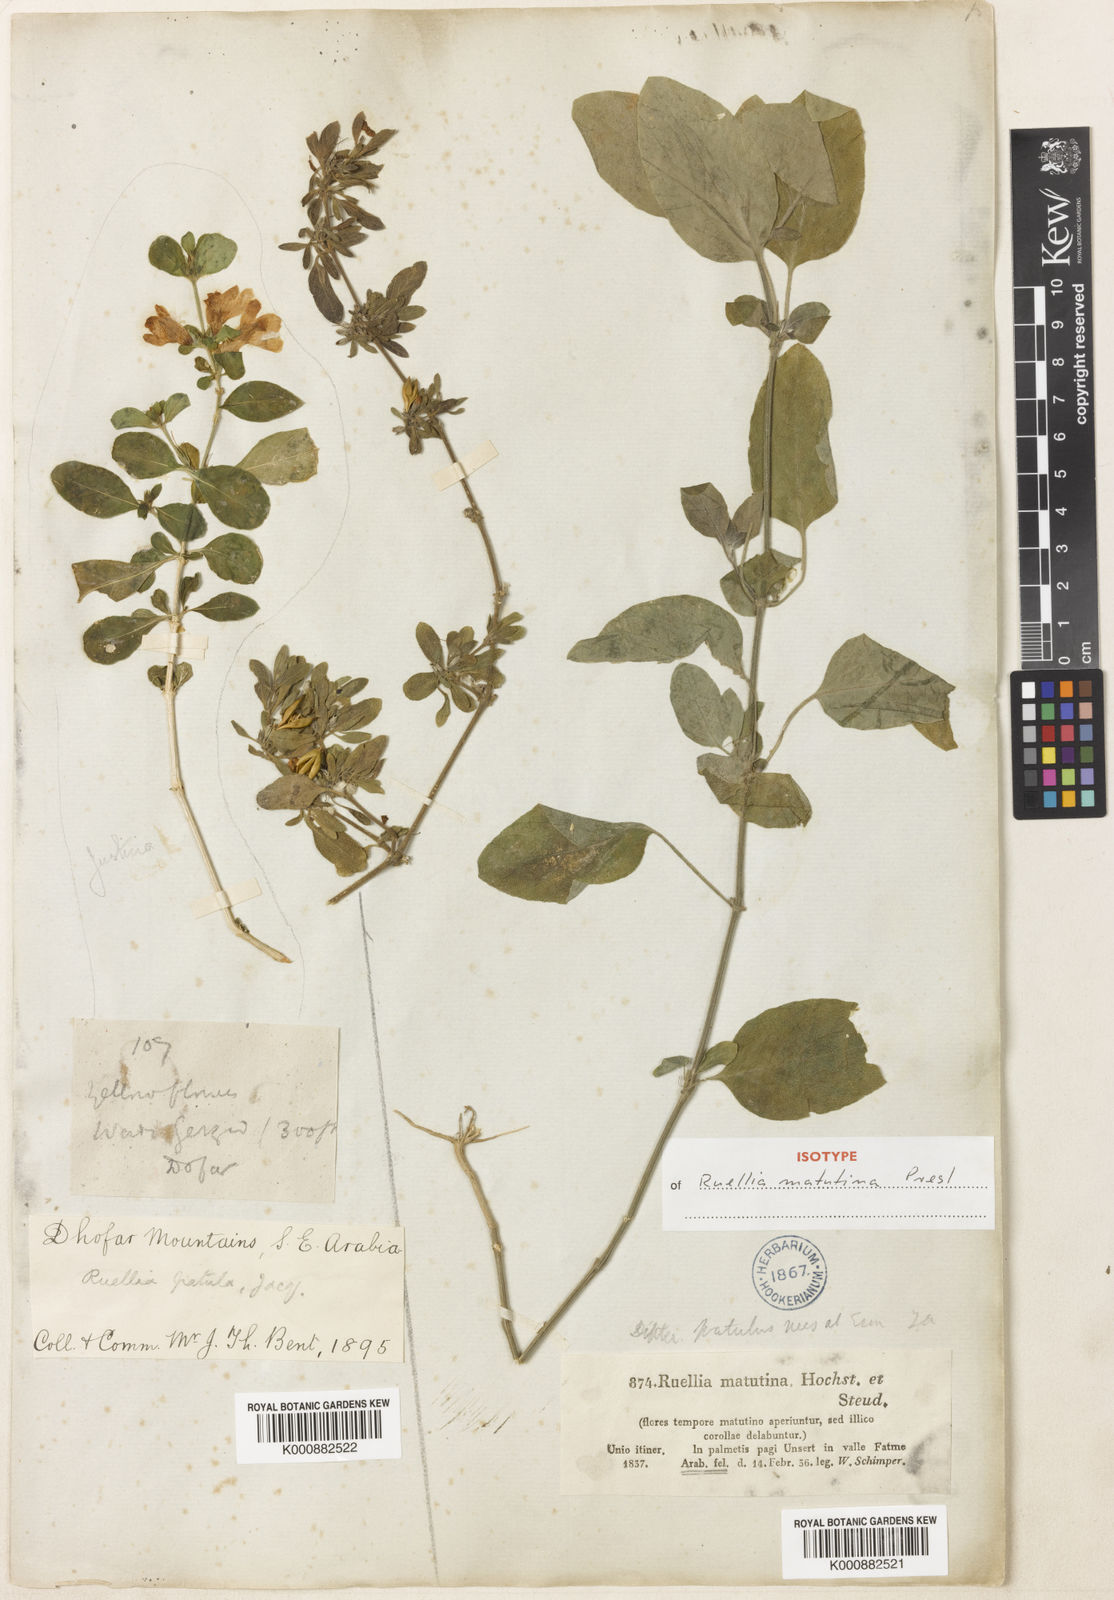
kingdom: Plantae
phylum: Tracheophyta
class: Magnoliopsida
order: Lamiales
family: Acanthaceae
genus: Ruellia
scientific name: Ruellia patula
